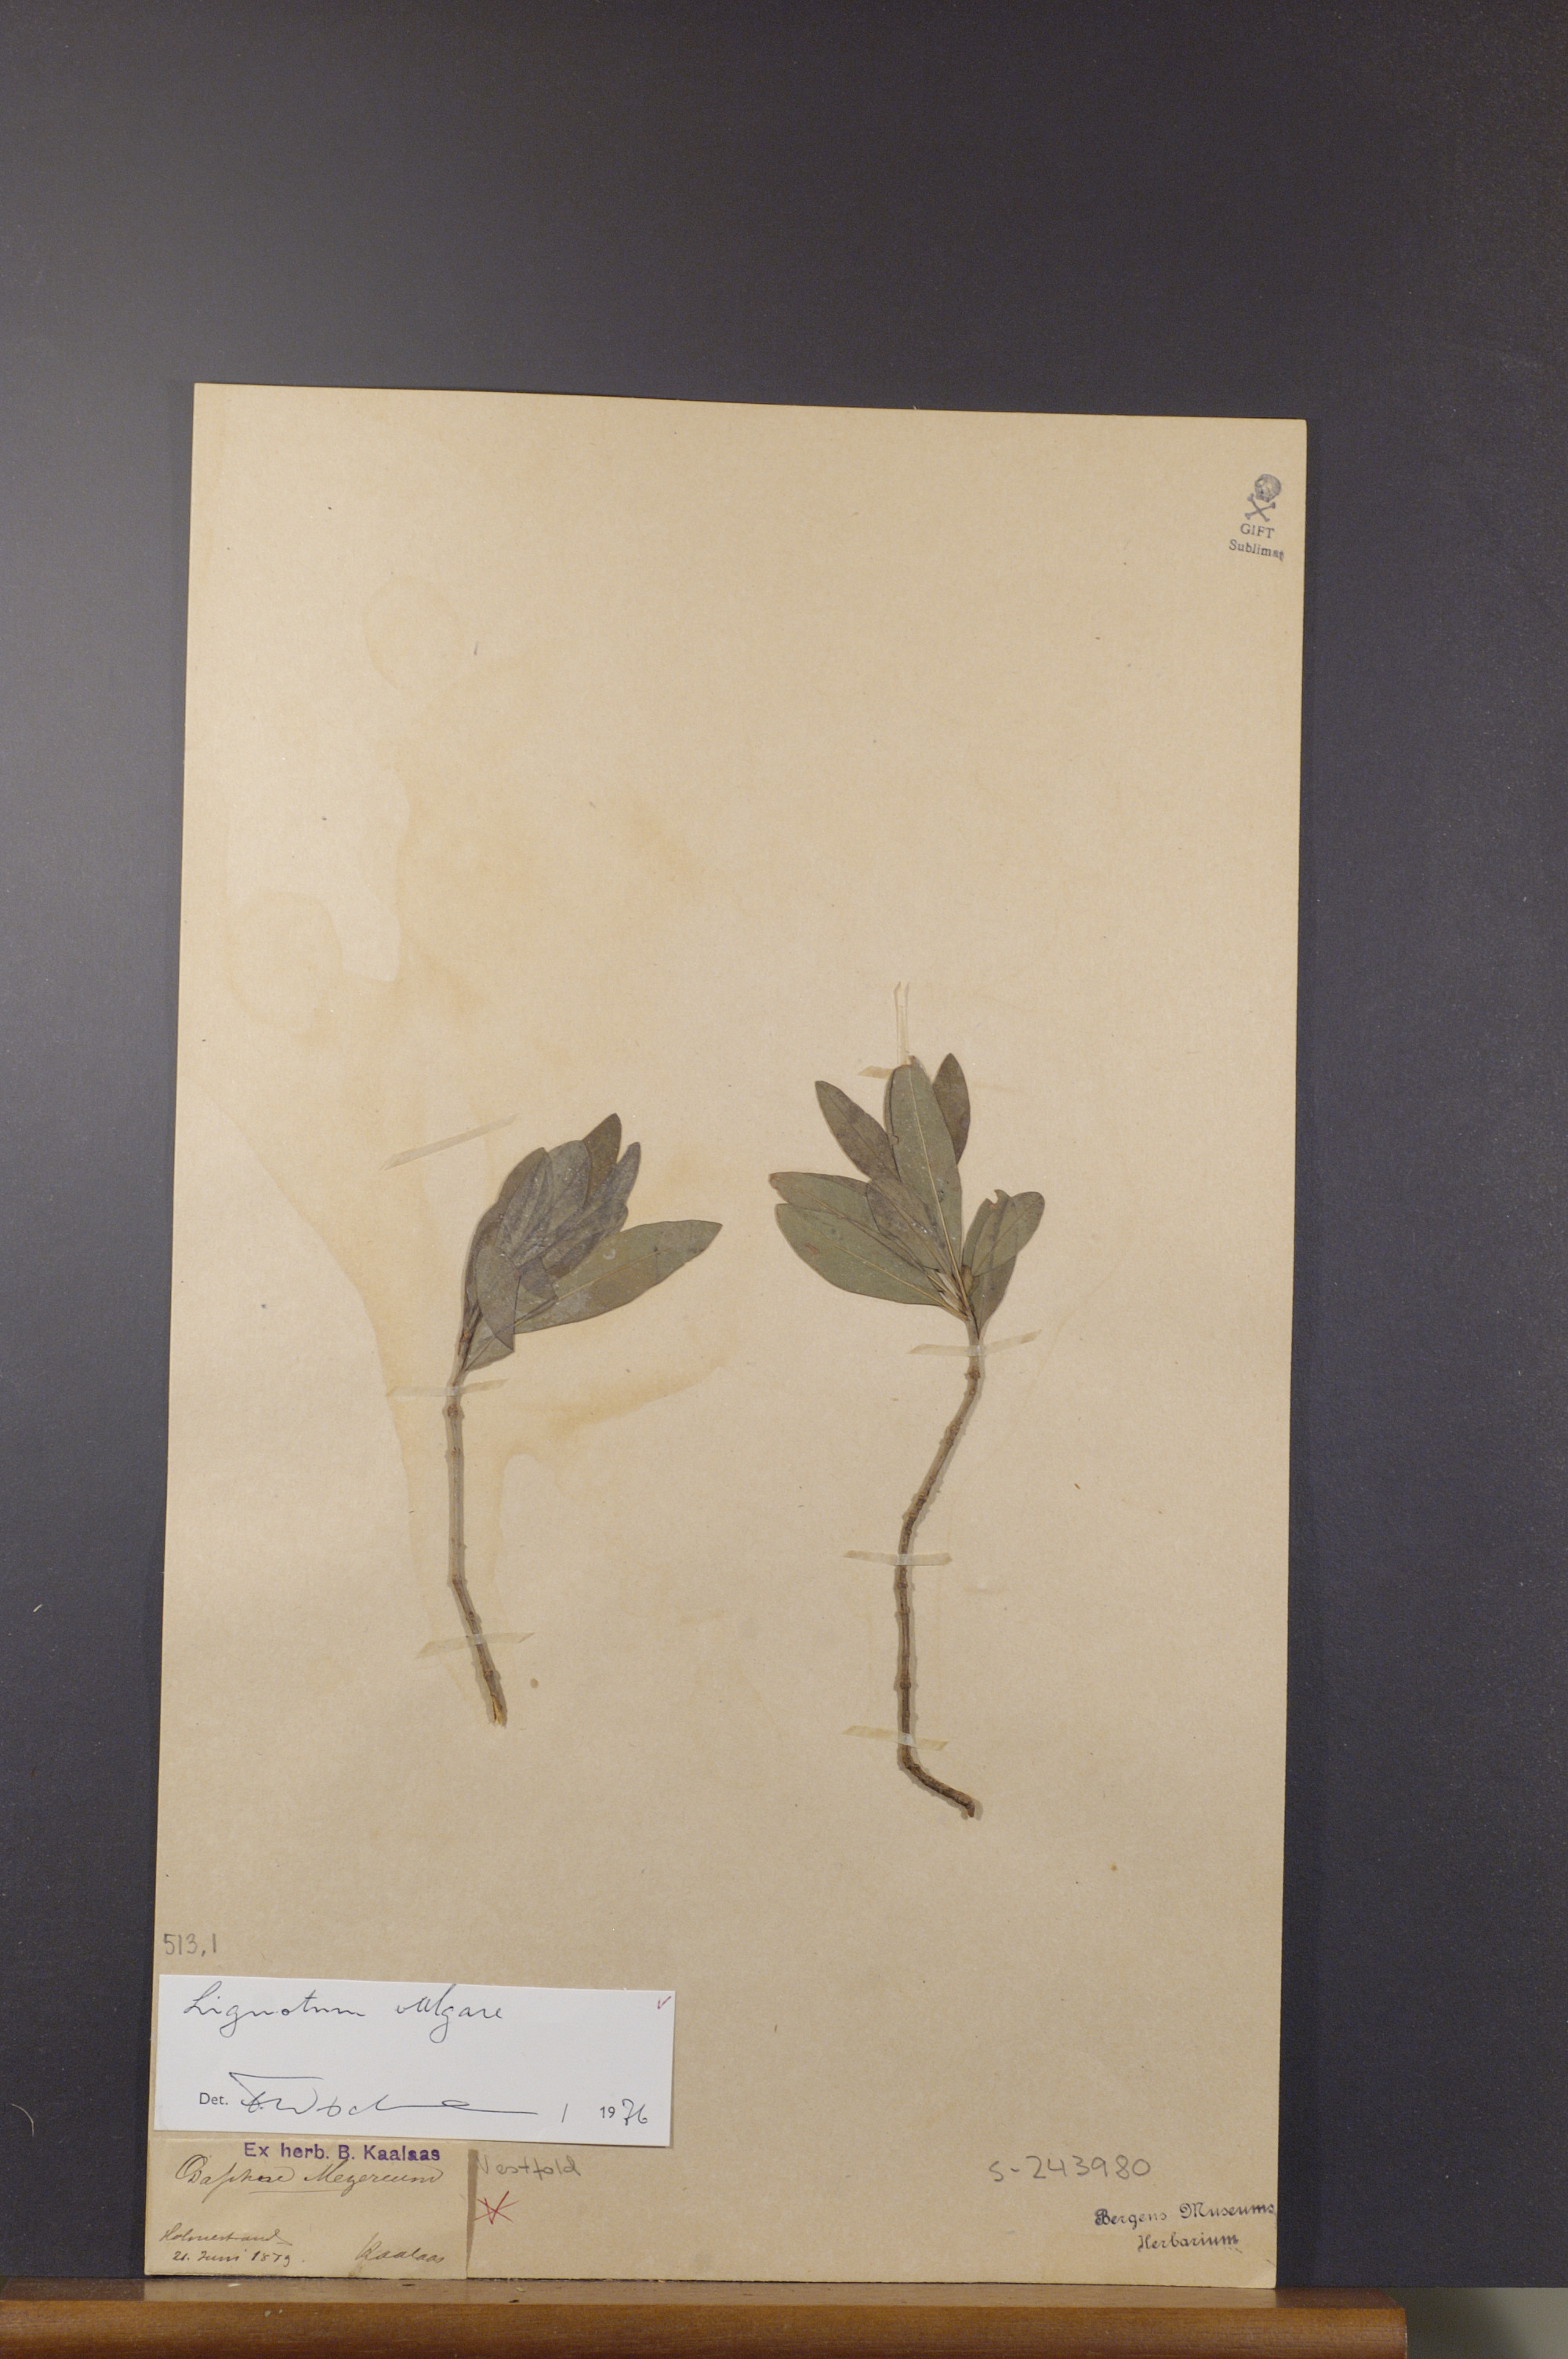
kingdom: Plantae
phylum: Tracheophyta
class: Magnoliopsida
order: Lamiales
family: Oleaceae
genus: Ligustrum
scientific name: Ligustrum vulgare
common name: Wild privet
